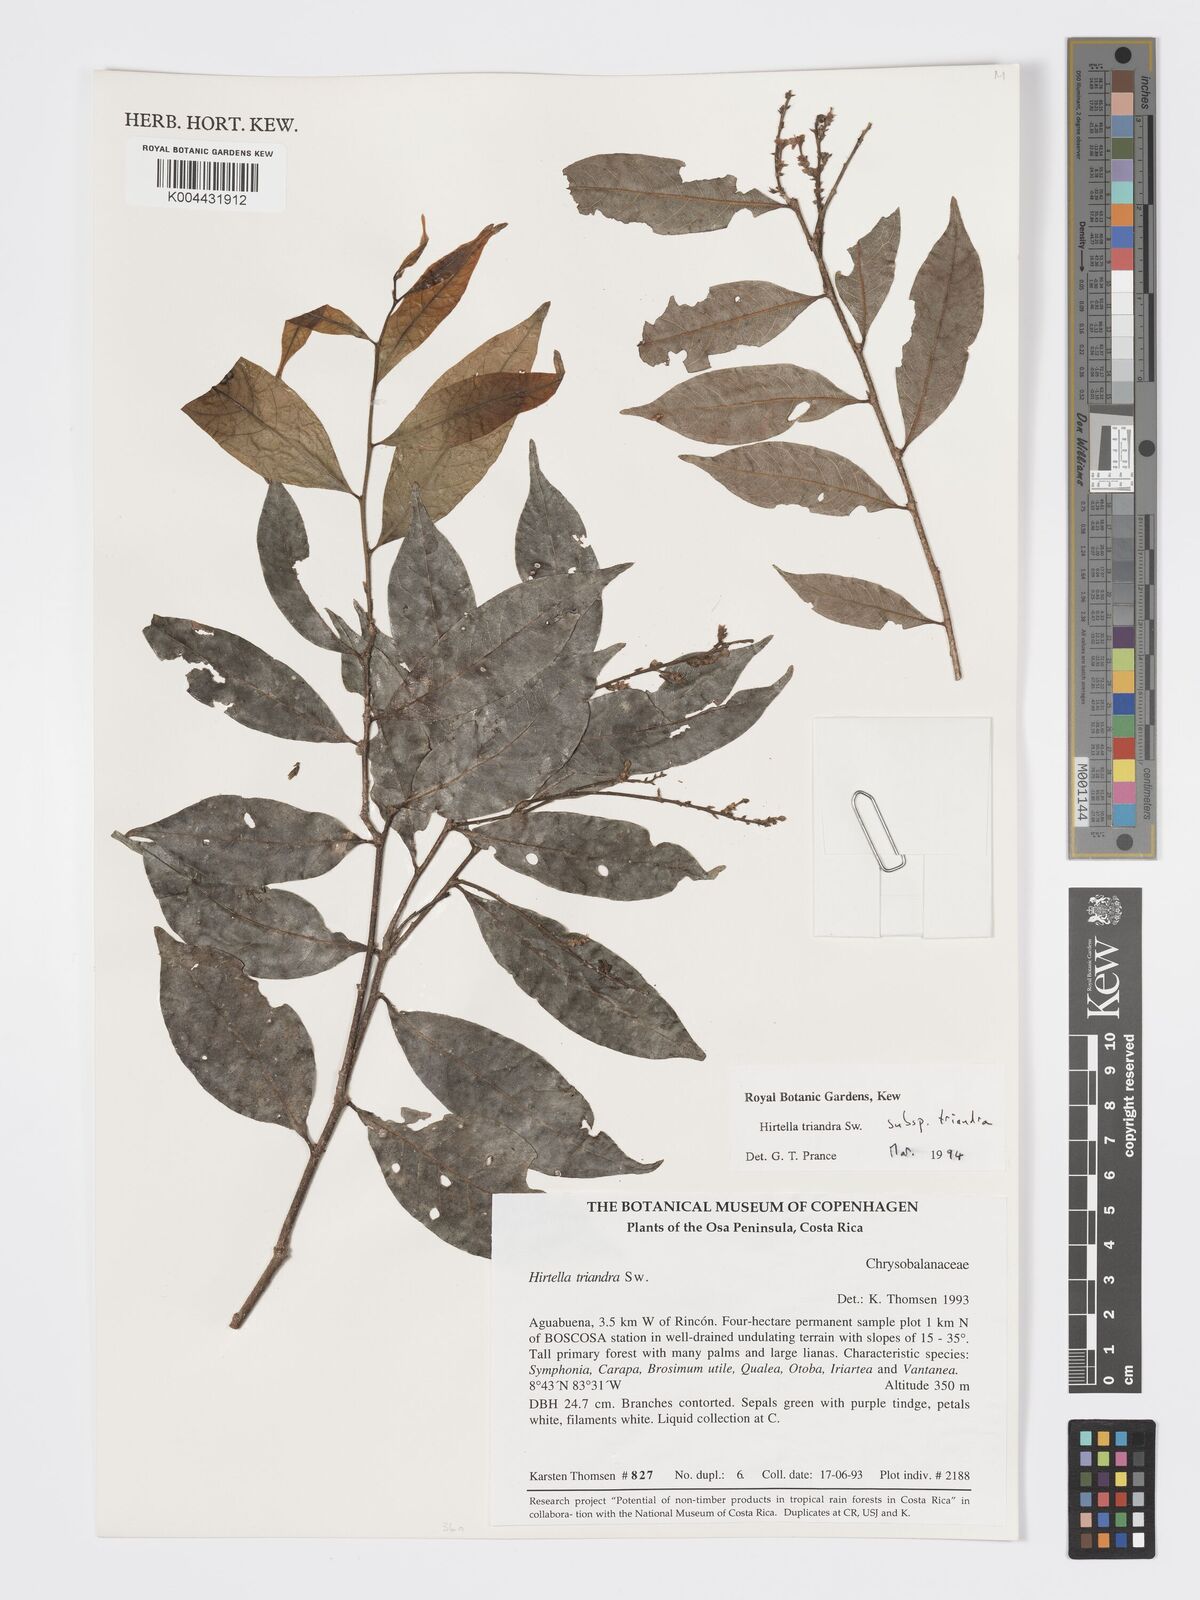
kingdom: Plantae
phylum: Tracheophyta
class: Magnoliopsida
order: Malpighiales
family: Chrysobalanaceae
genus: Hirtella
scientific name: Hirtella triandra
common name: Hairy plum
